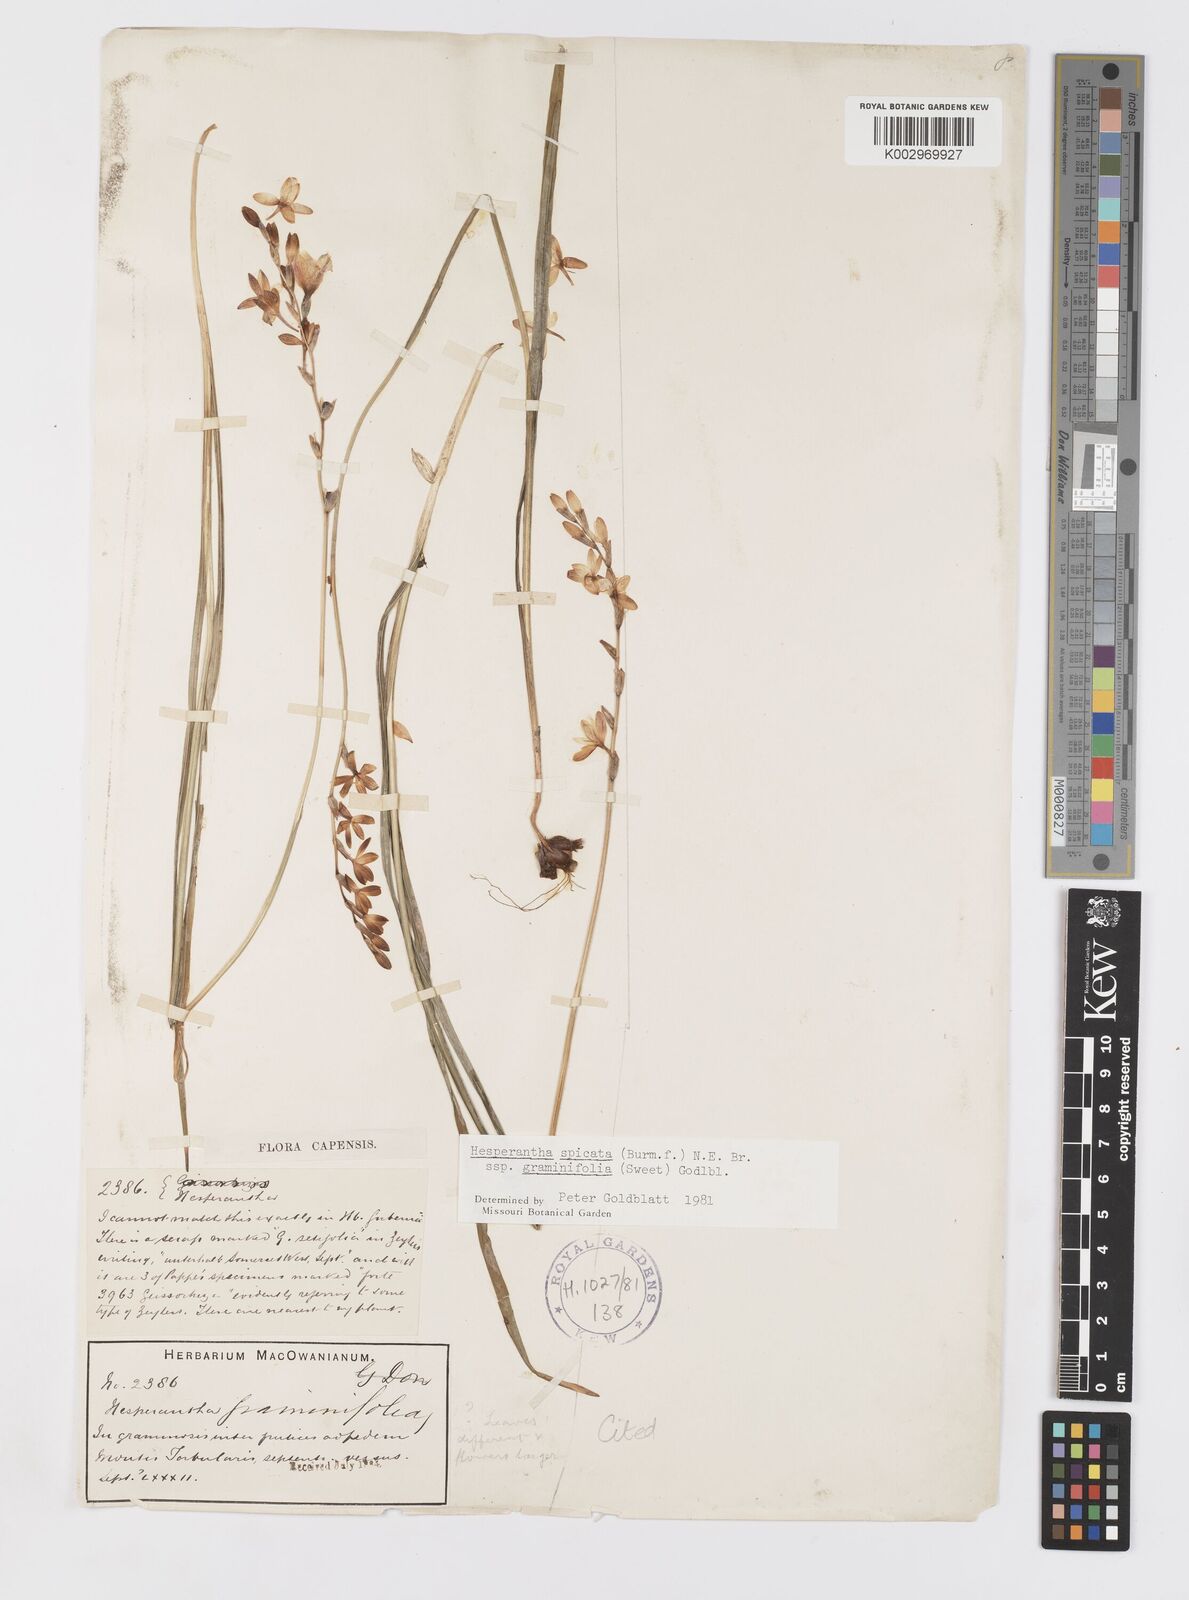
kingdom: Plantae
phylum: Tracheophyta
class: Liliopsida
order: Asparagales
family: Iridaceae
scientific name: Iridaceae
